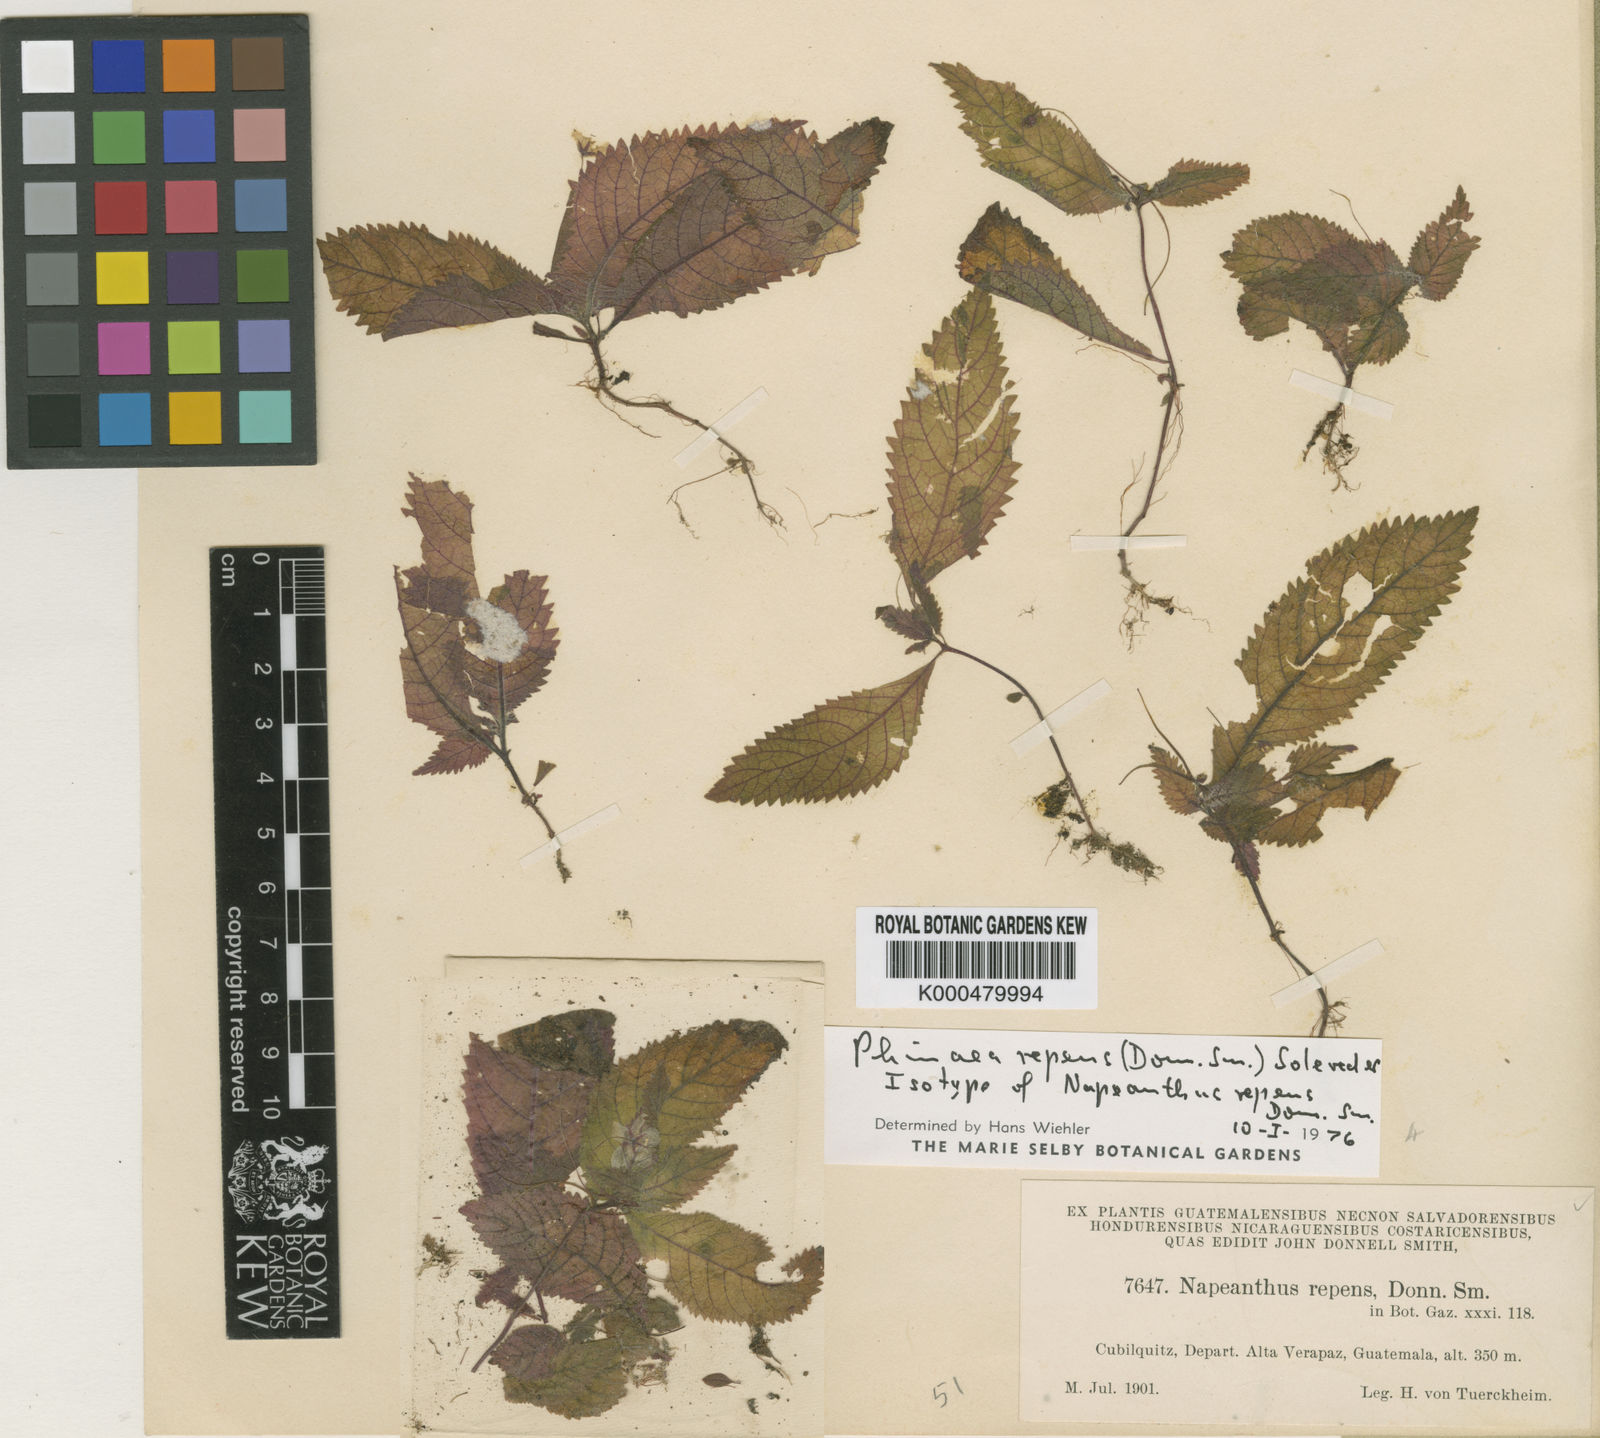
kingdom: Plantae
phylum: Tracheophyta
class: Magnoliopsida
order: Lamiales
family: Gesneriaceae
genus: Amalophyllon
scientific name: Amalophyllon repens
